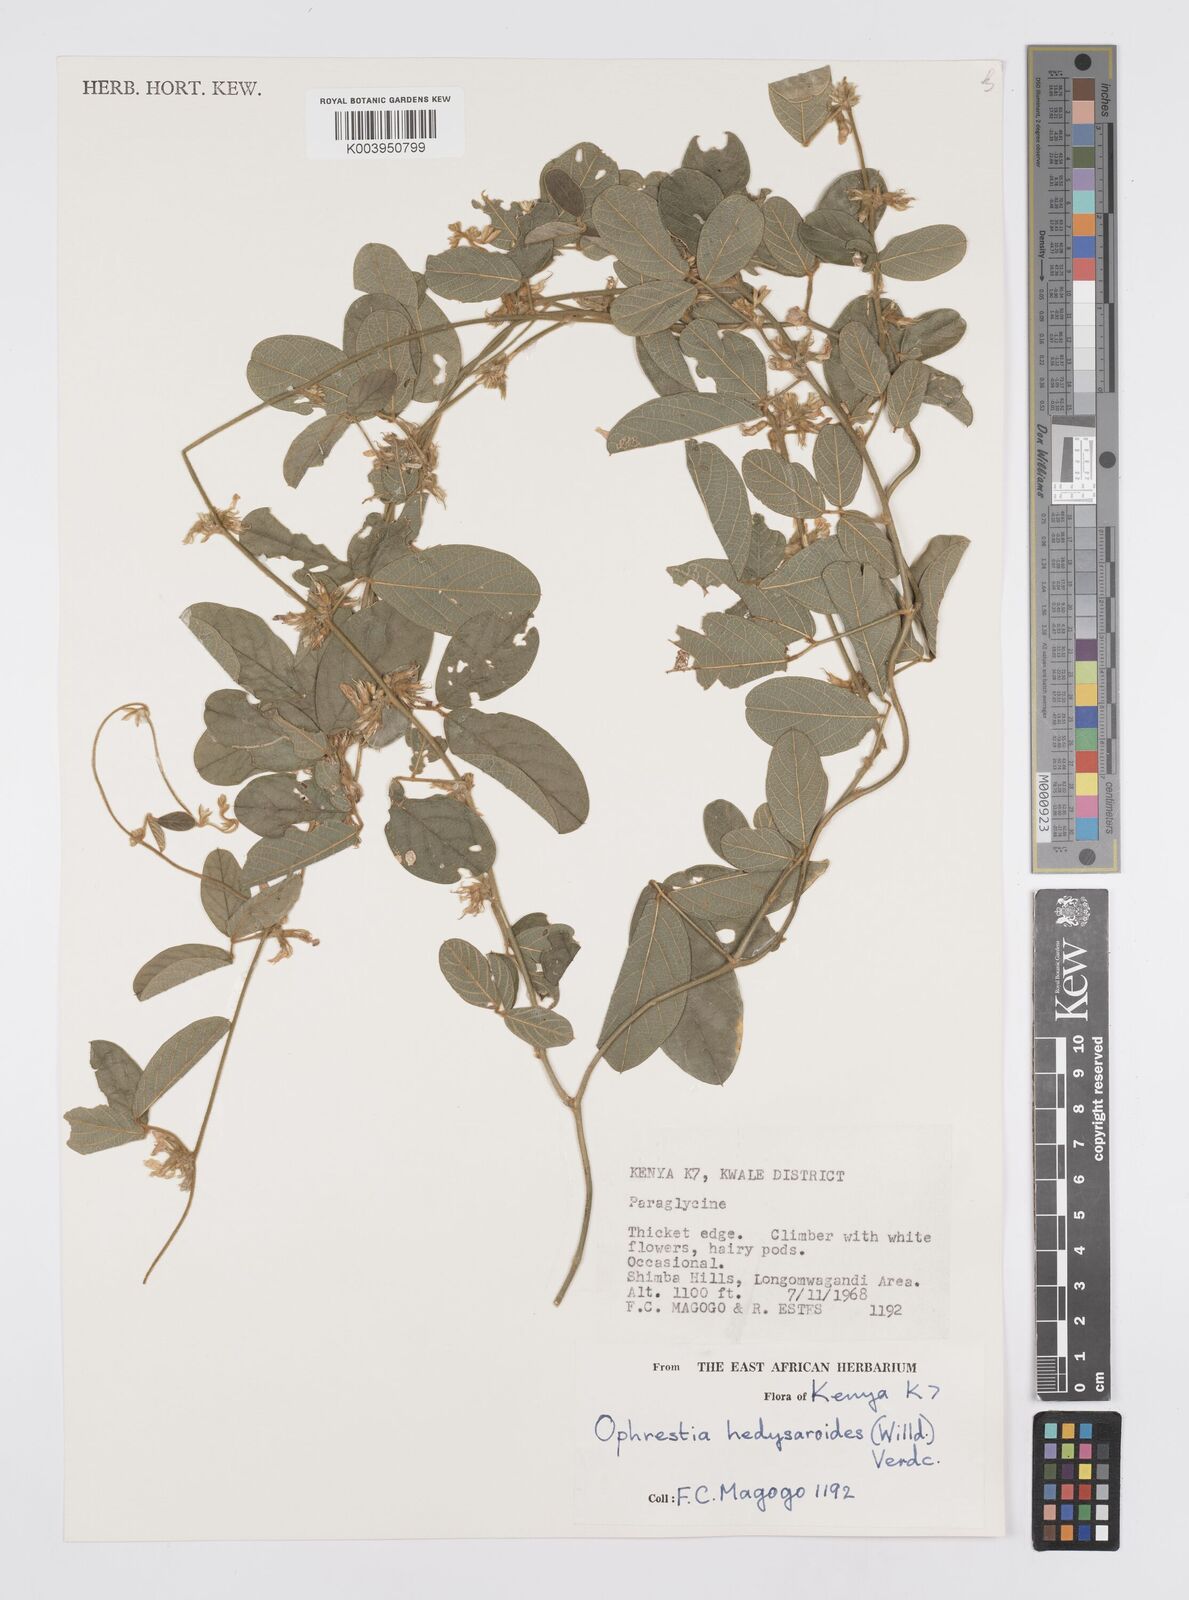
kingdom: Plantae
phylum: Tracheophyta
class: Magnoliopsida
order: Fabales
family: Fabaceae
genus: Ophrestia
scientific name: Ophrestia hedysaroides
